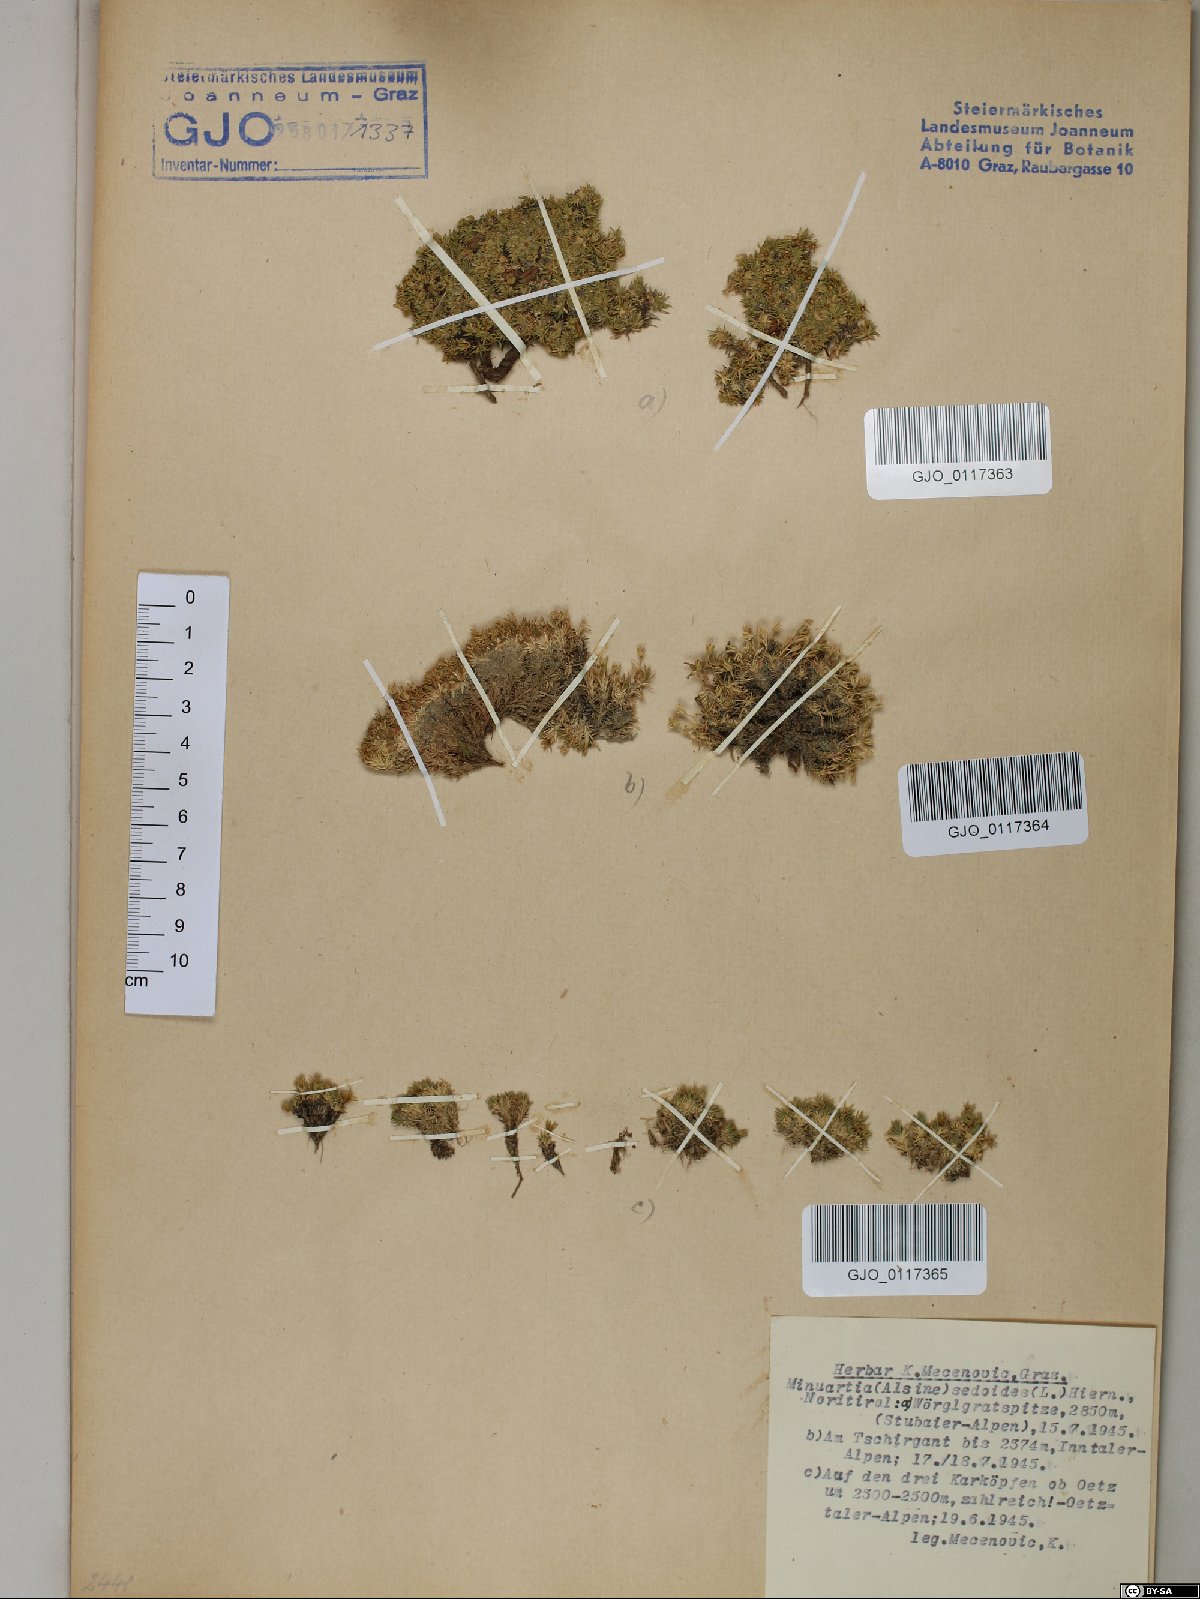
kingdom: Plantae
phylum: Tracheophyta
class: Magnoliopsida
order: Caryophyllales
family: Caryophyllaceae
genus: Cherleria
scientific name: Cherleria sedoides
